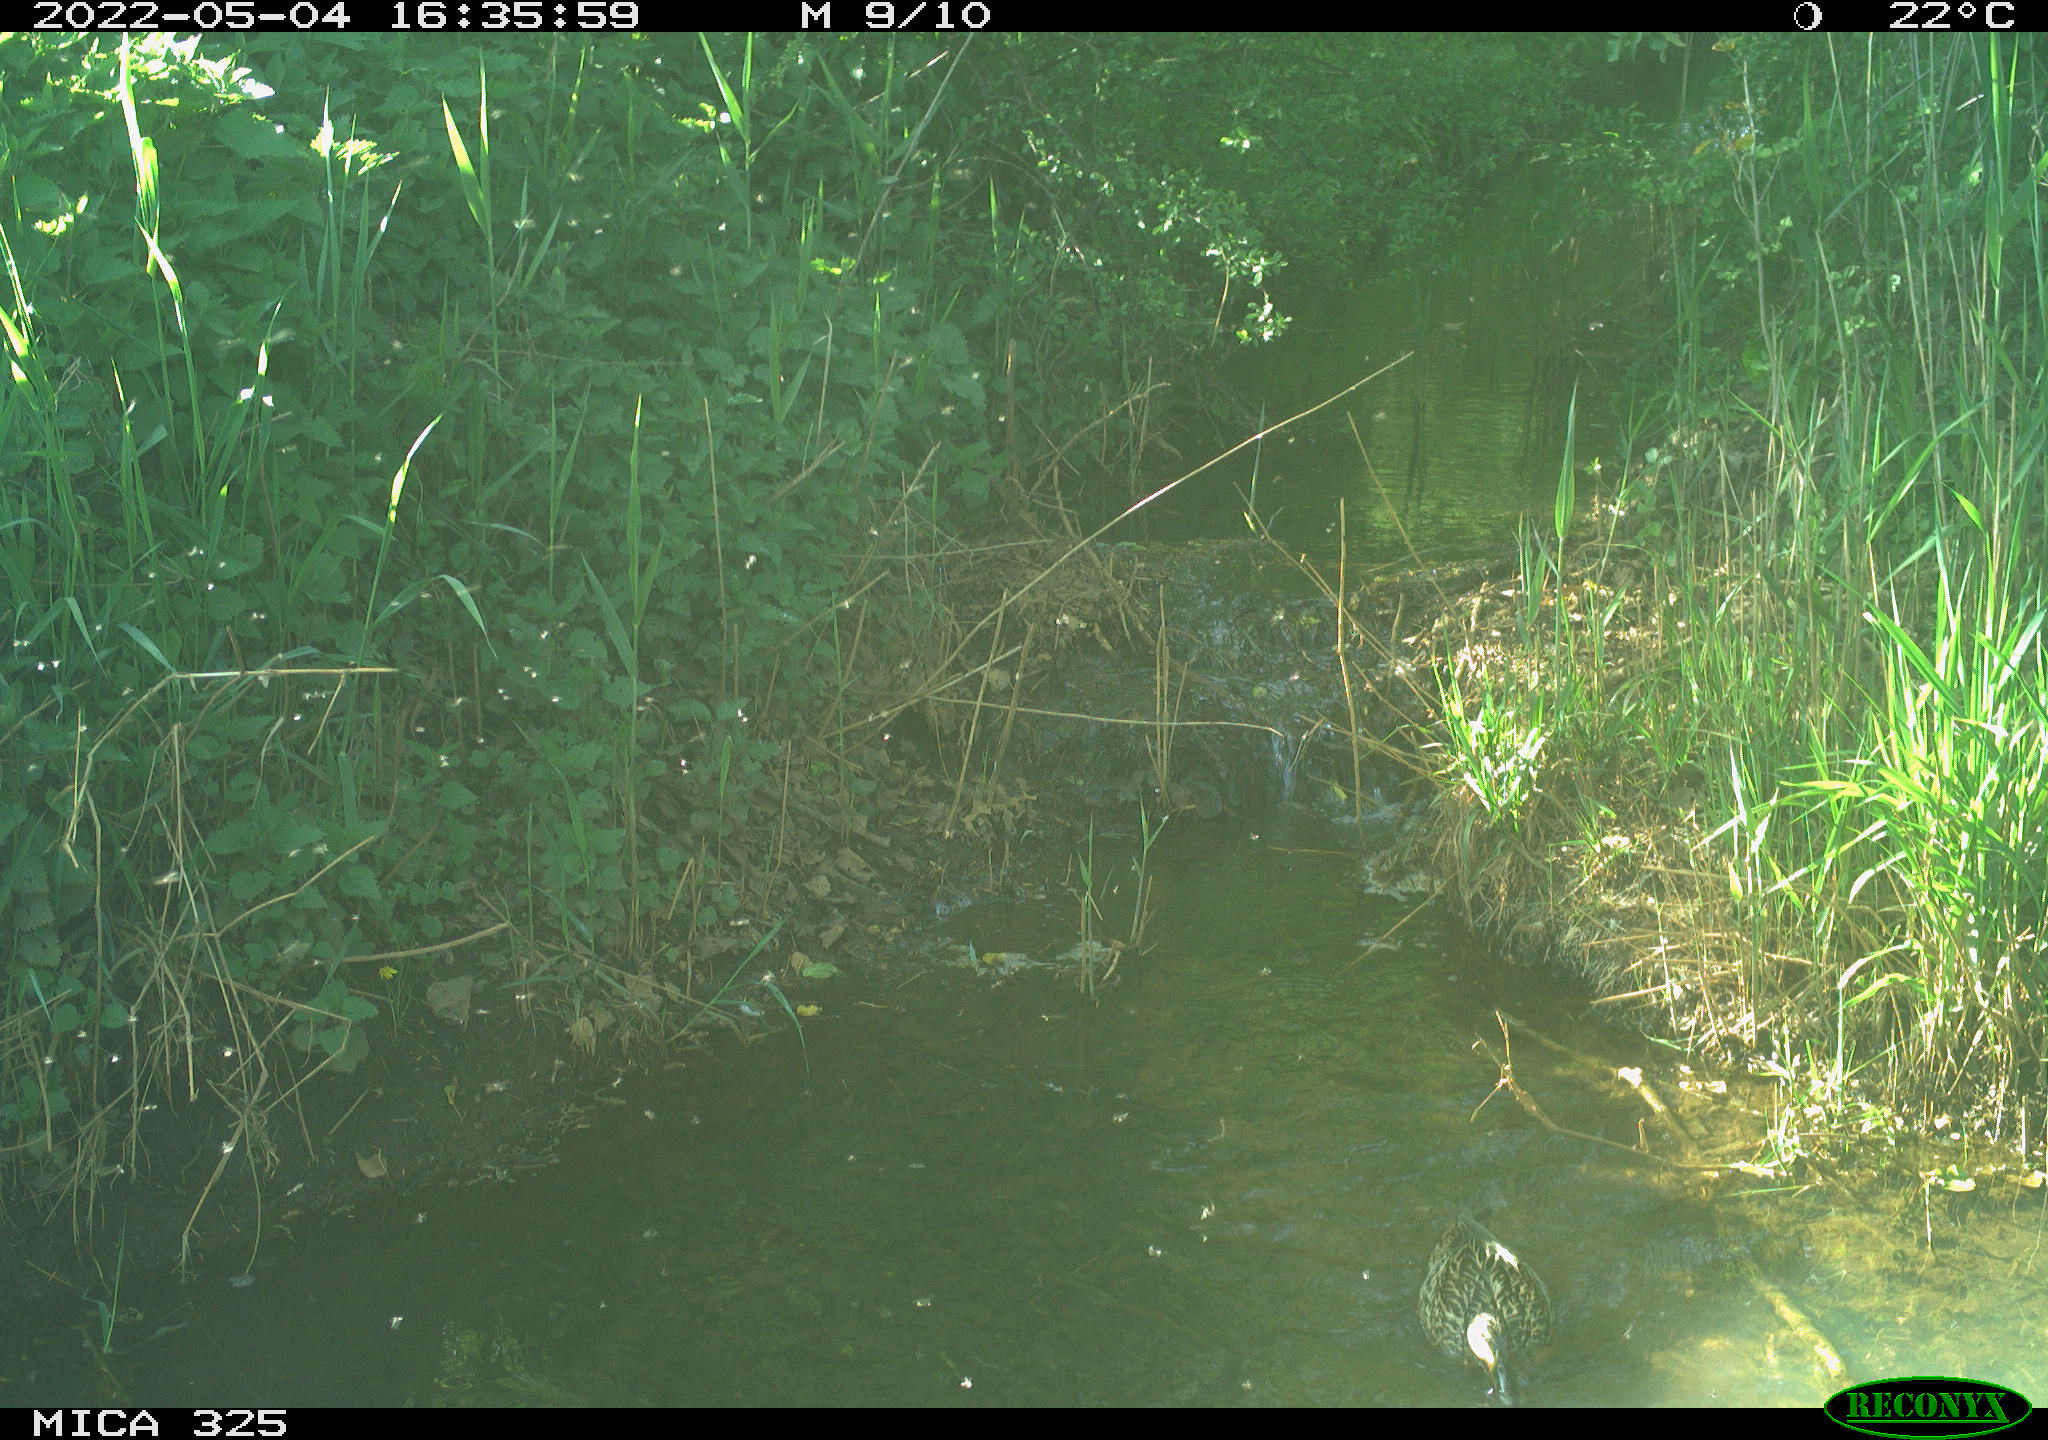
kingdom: Animalia
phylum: Chordata
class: Aves
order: Anseriformes
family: Anatidae
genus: Anas
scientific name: Anas platyrhynchos
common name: Mallard
